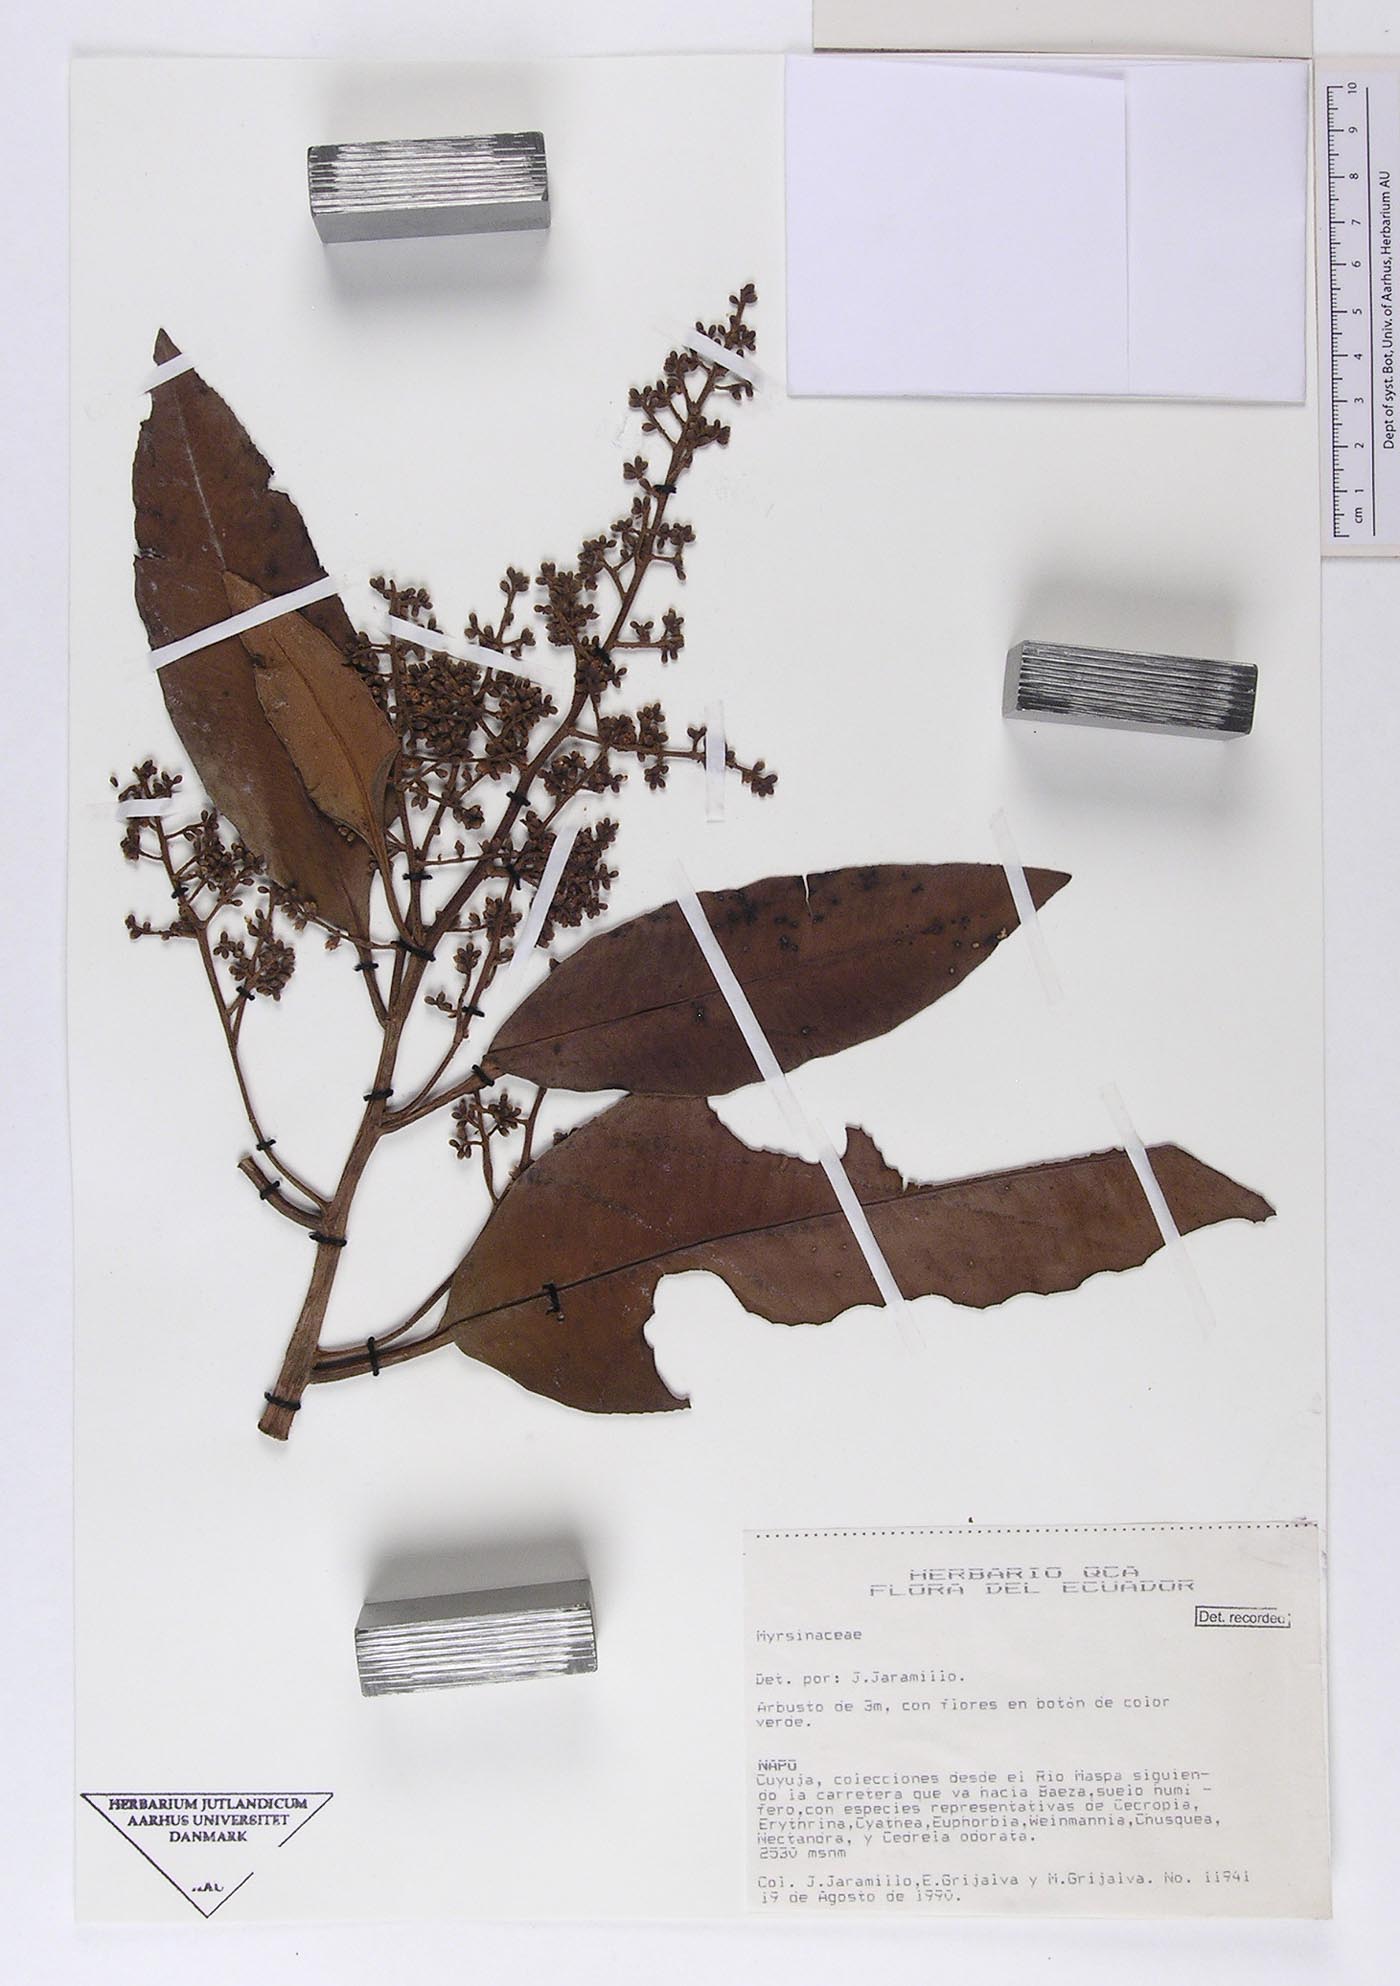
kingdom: Plantae
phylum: Tracheophyta
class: Magnoliopsida
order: Ericales
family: Primulaceae
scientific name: Primulaceae
